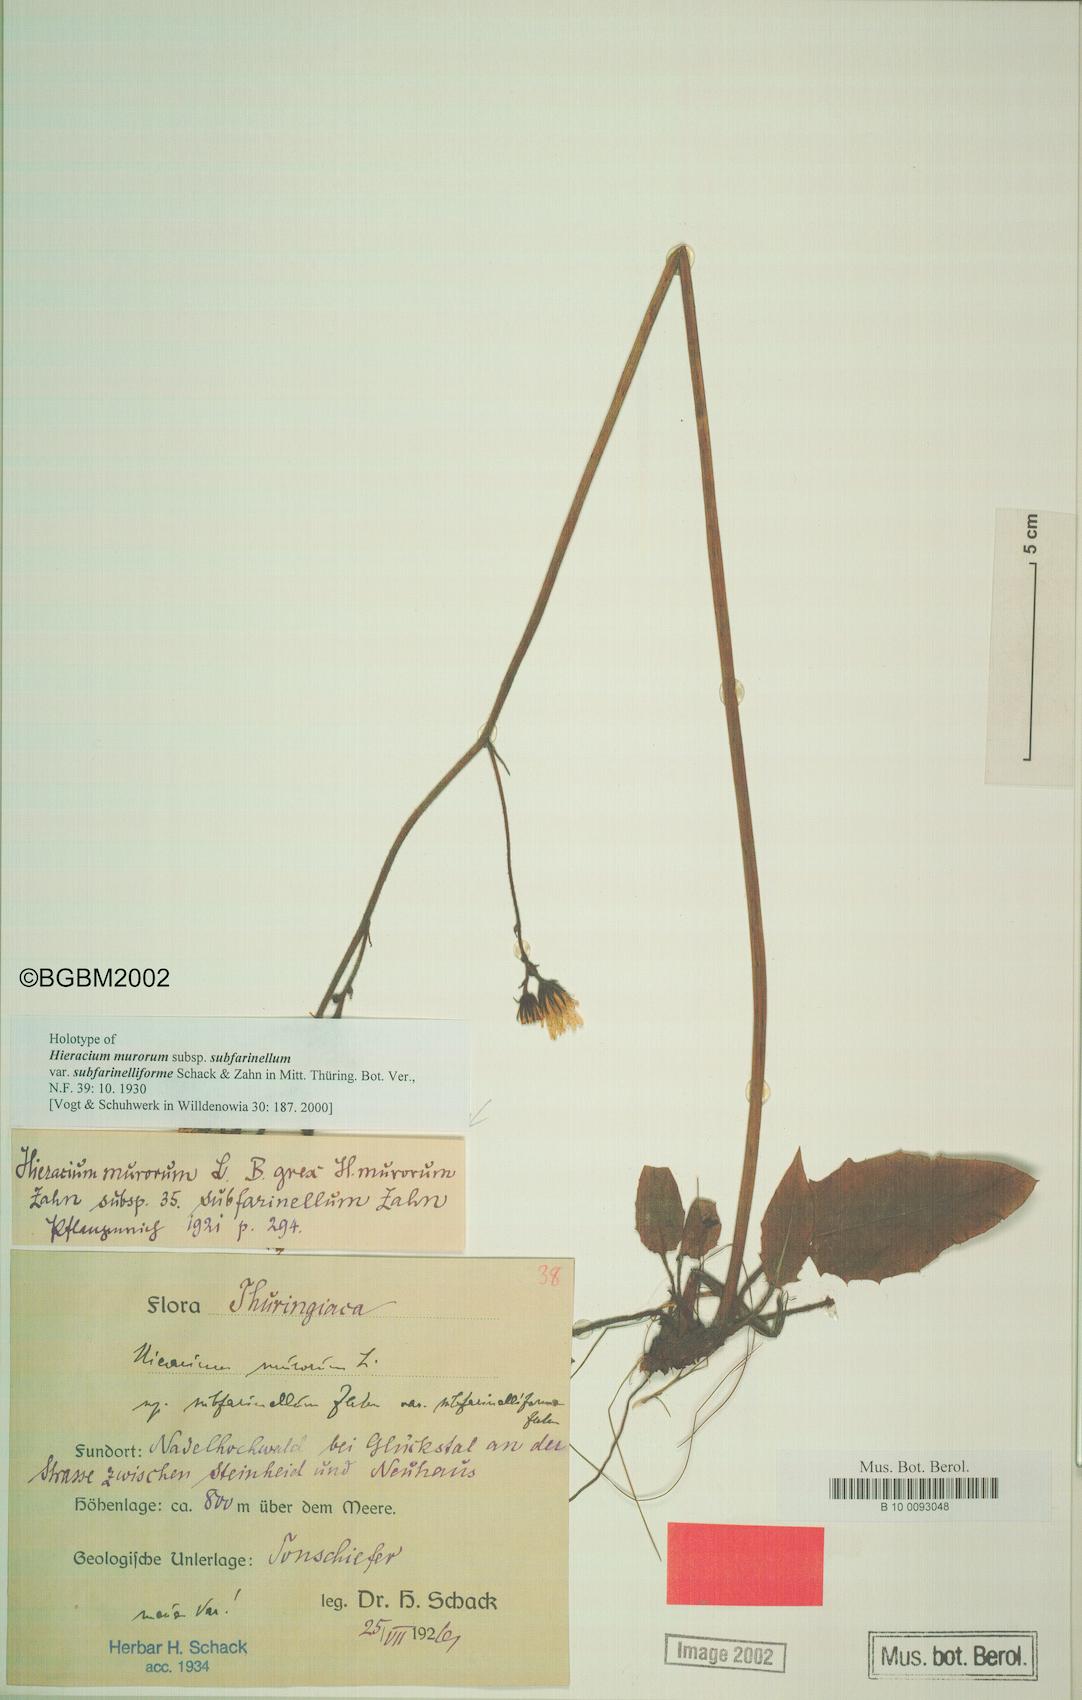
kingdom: Plantae
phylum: Tracheophyta
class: Magnoliopsida
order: Asterales
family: Asteraceae
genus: Hieracium
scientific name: Hieracium murorum
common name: Wall hawkweed
